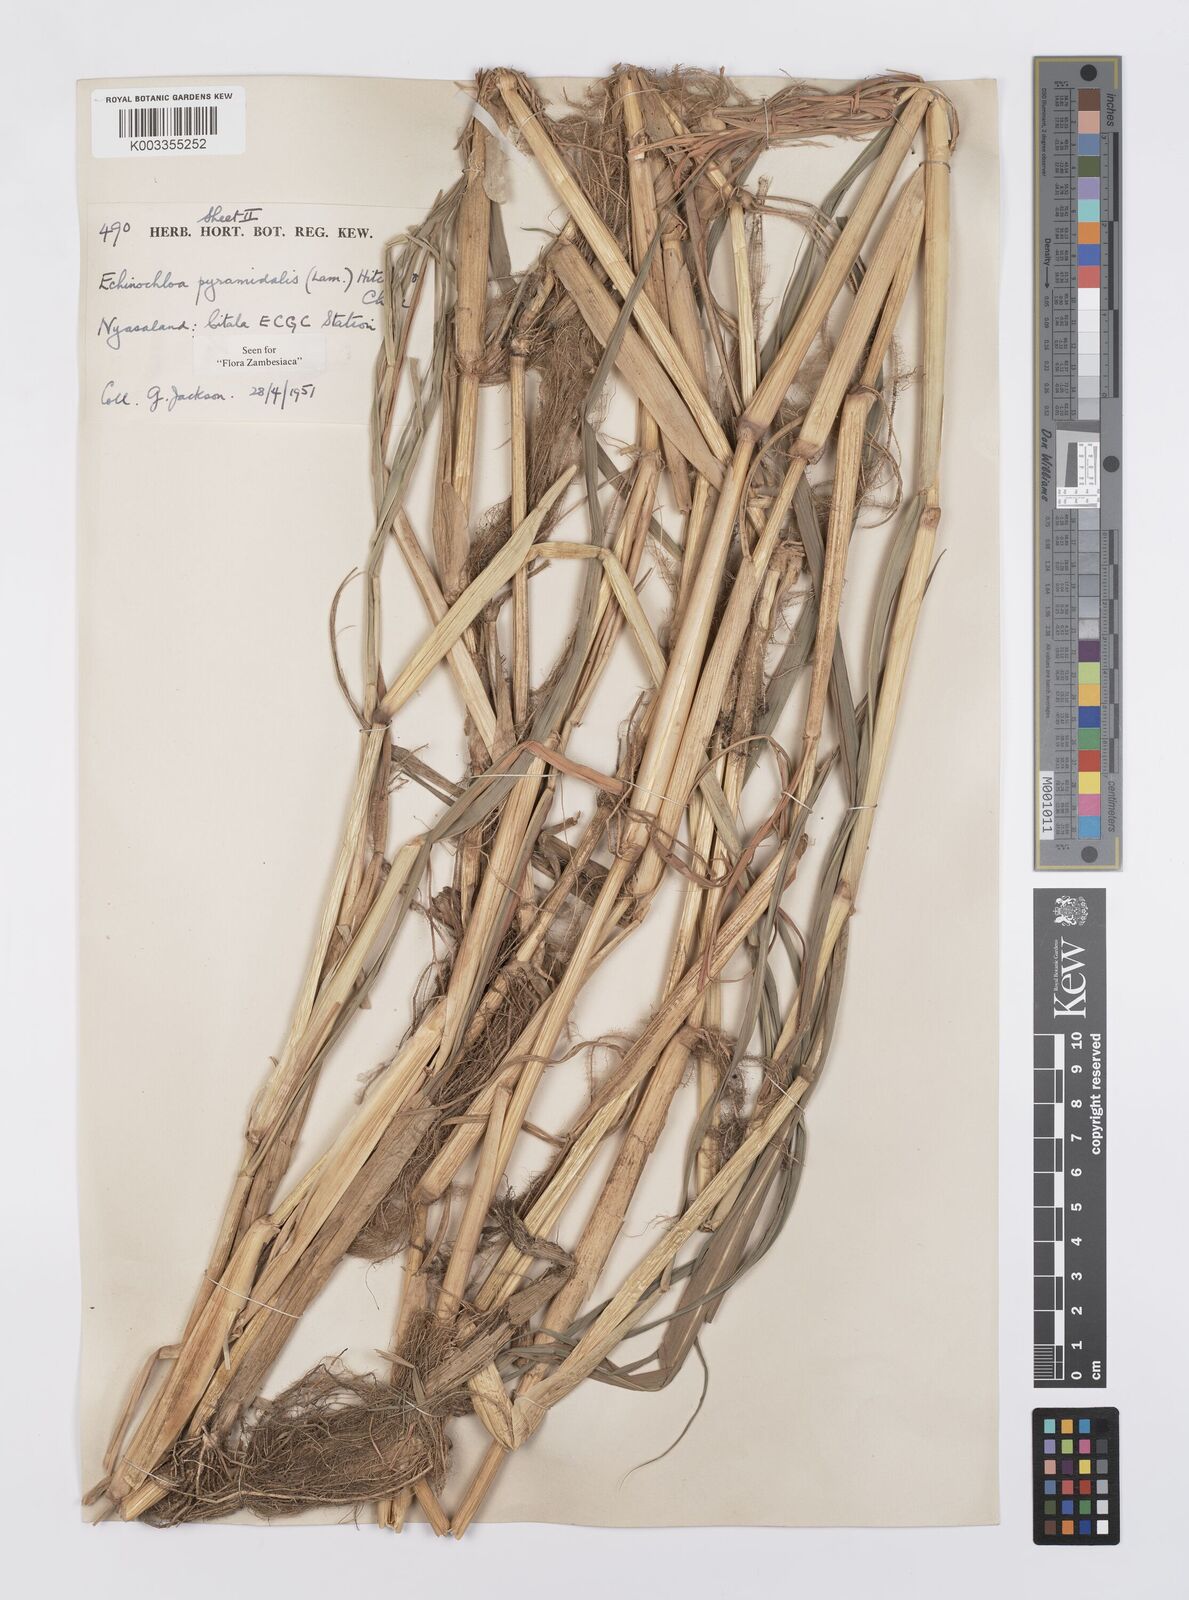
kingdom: Plantae
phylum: Tracheophyta
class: Liliopsida
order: Poales
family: Poaceae
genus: Echinochloa
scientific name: Echinochloa pyramidalis
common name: Antelope grass
